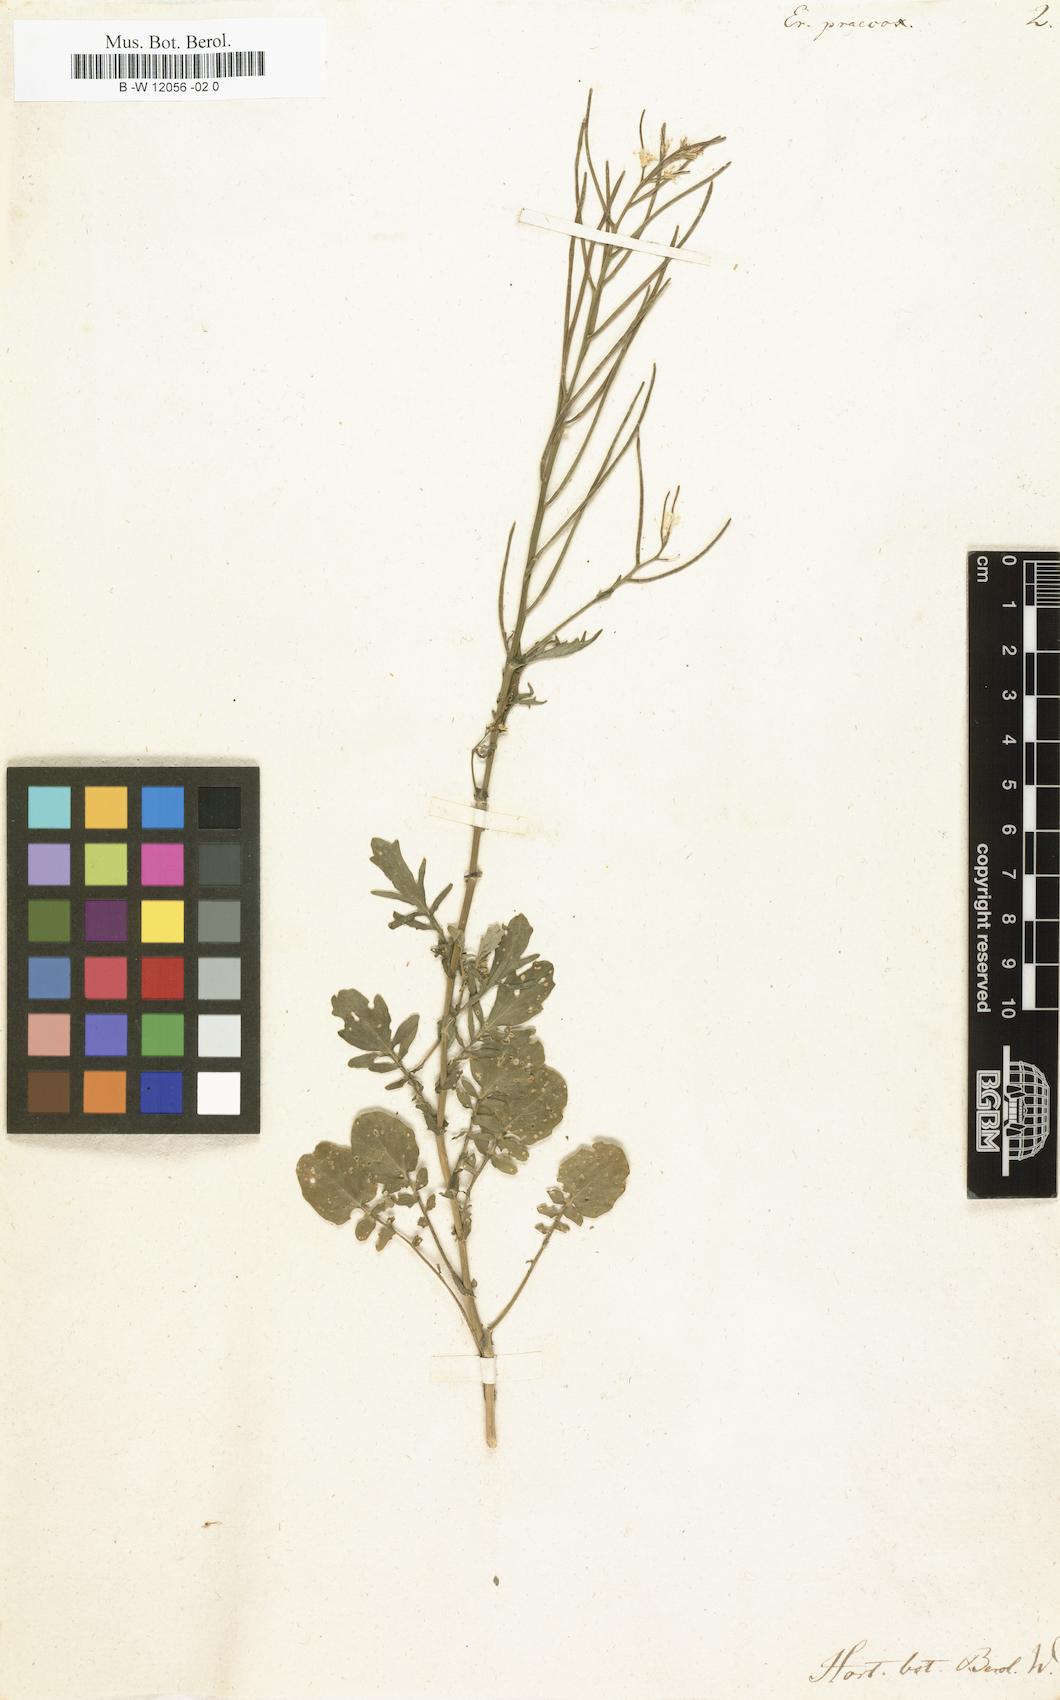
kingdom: Plantae
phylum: Tracheophyta
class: Magnoliopsida
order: Brassicales
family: Brassicaceae
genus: Barbarea
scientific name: Barbarea verna
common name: American cress
